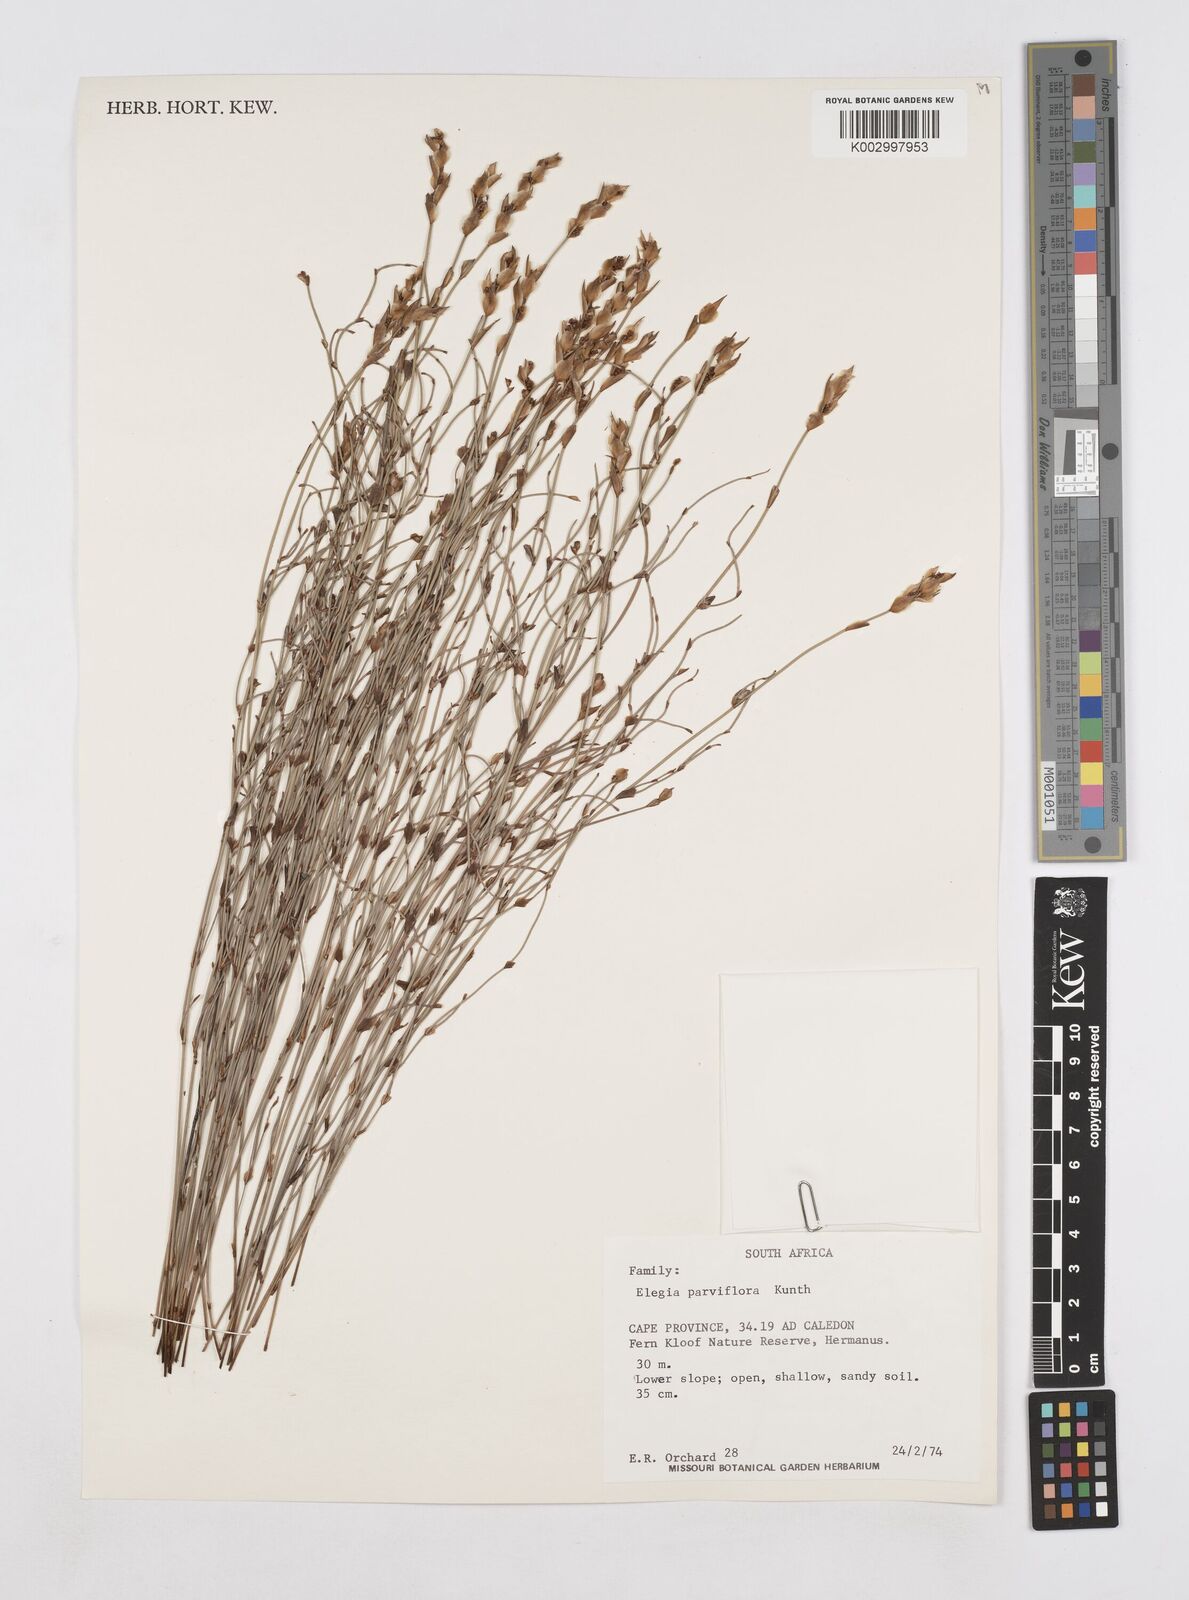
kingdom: Plantae
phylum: Tracheophyta
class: Liliopsida
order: Poales
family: Restionaceae
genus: Elegia
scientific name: Elegia stipularis
